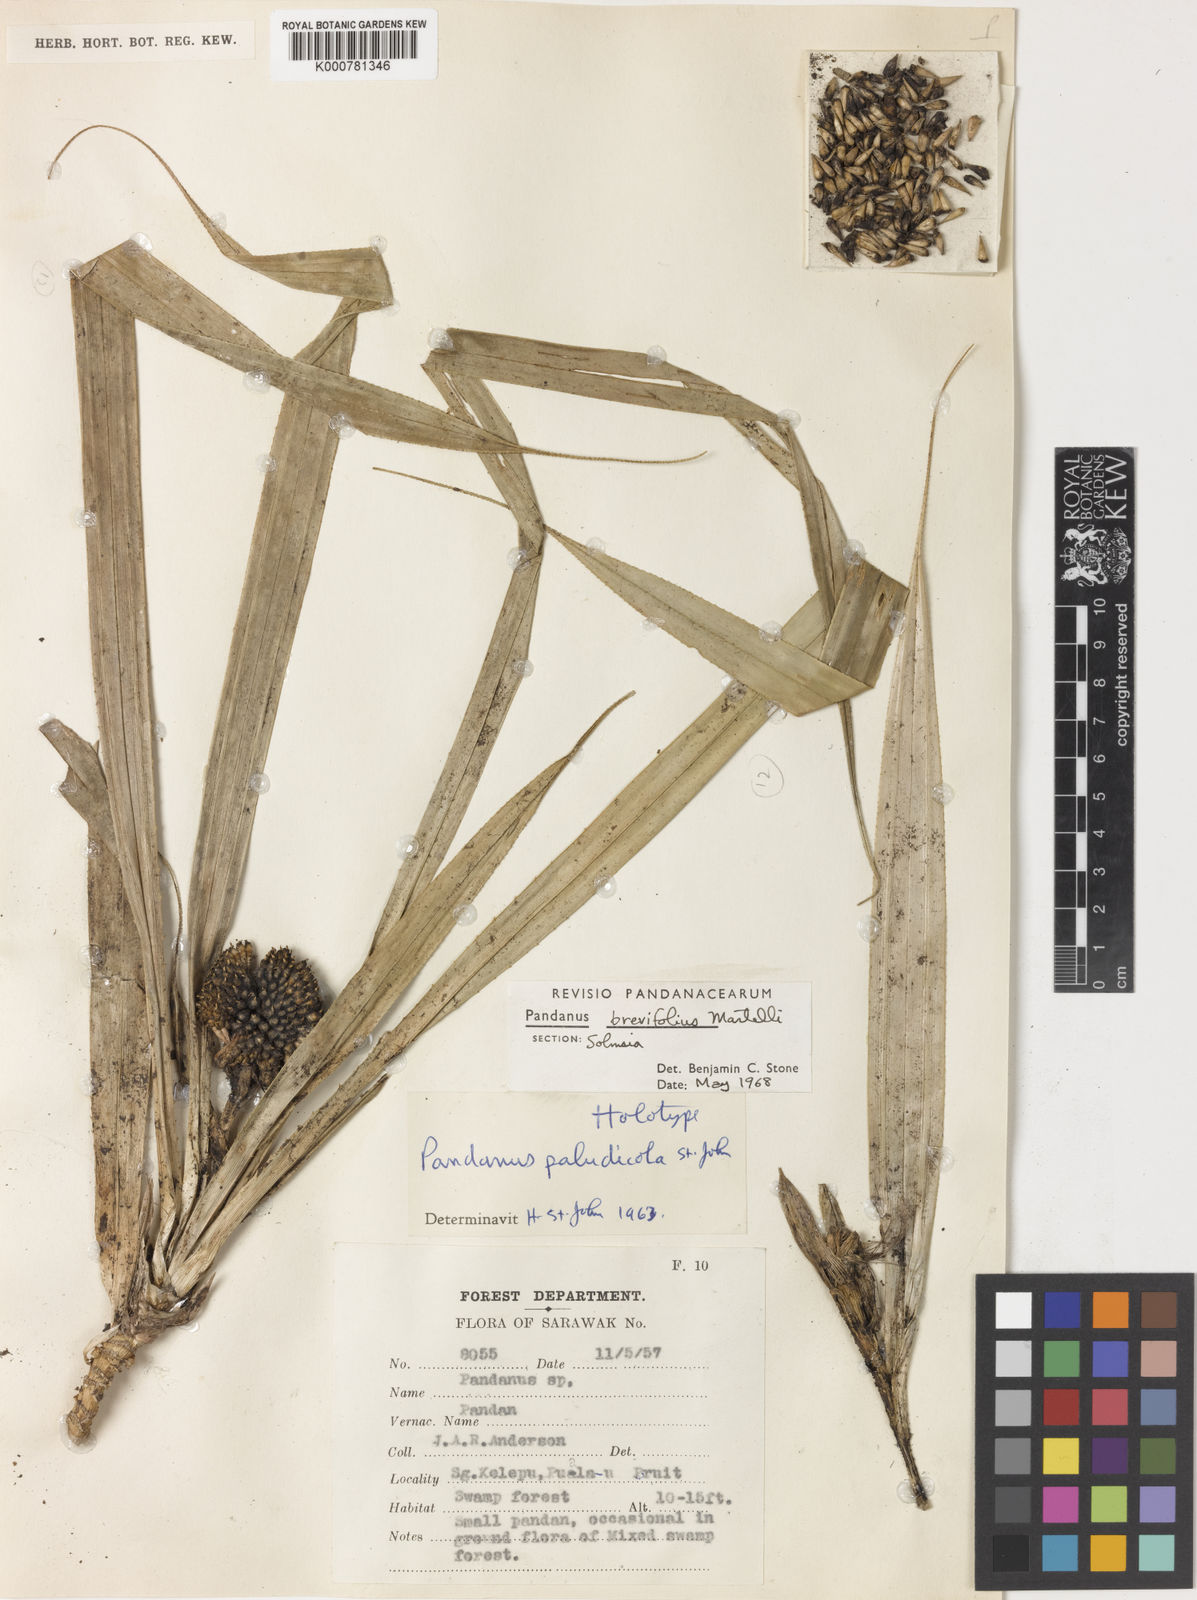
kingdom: Plantae
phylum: Tracheophyta
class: Liliopsida
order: Pandanales
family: Pandanaceae
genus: Pandanus
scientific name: Pandanus yvanii
